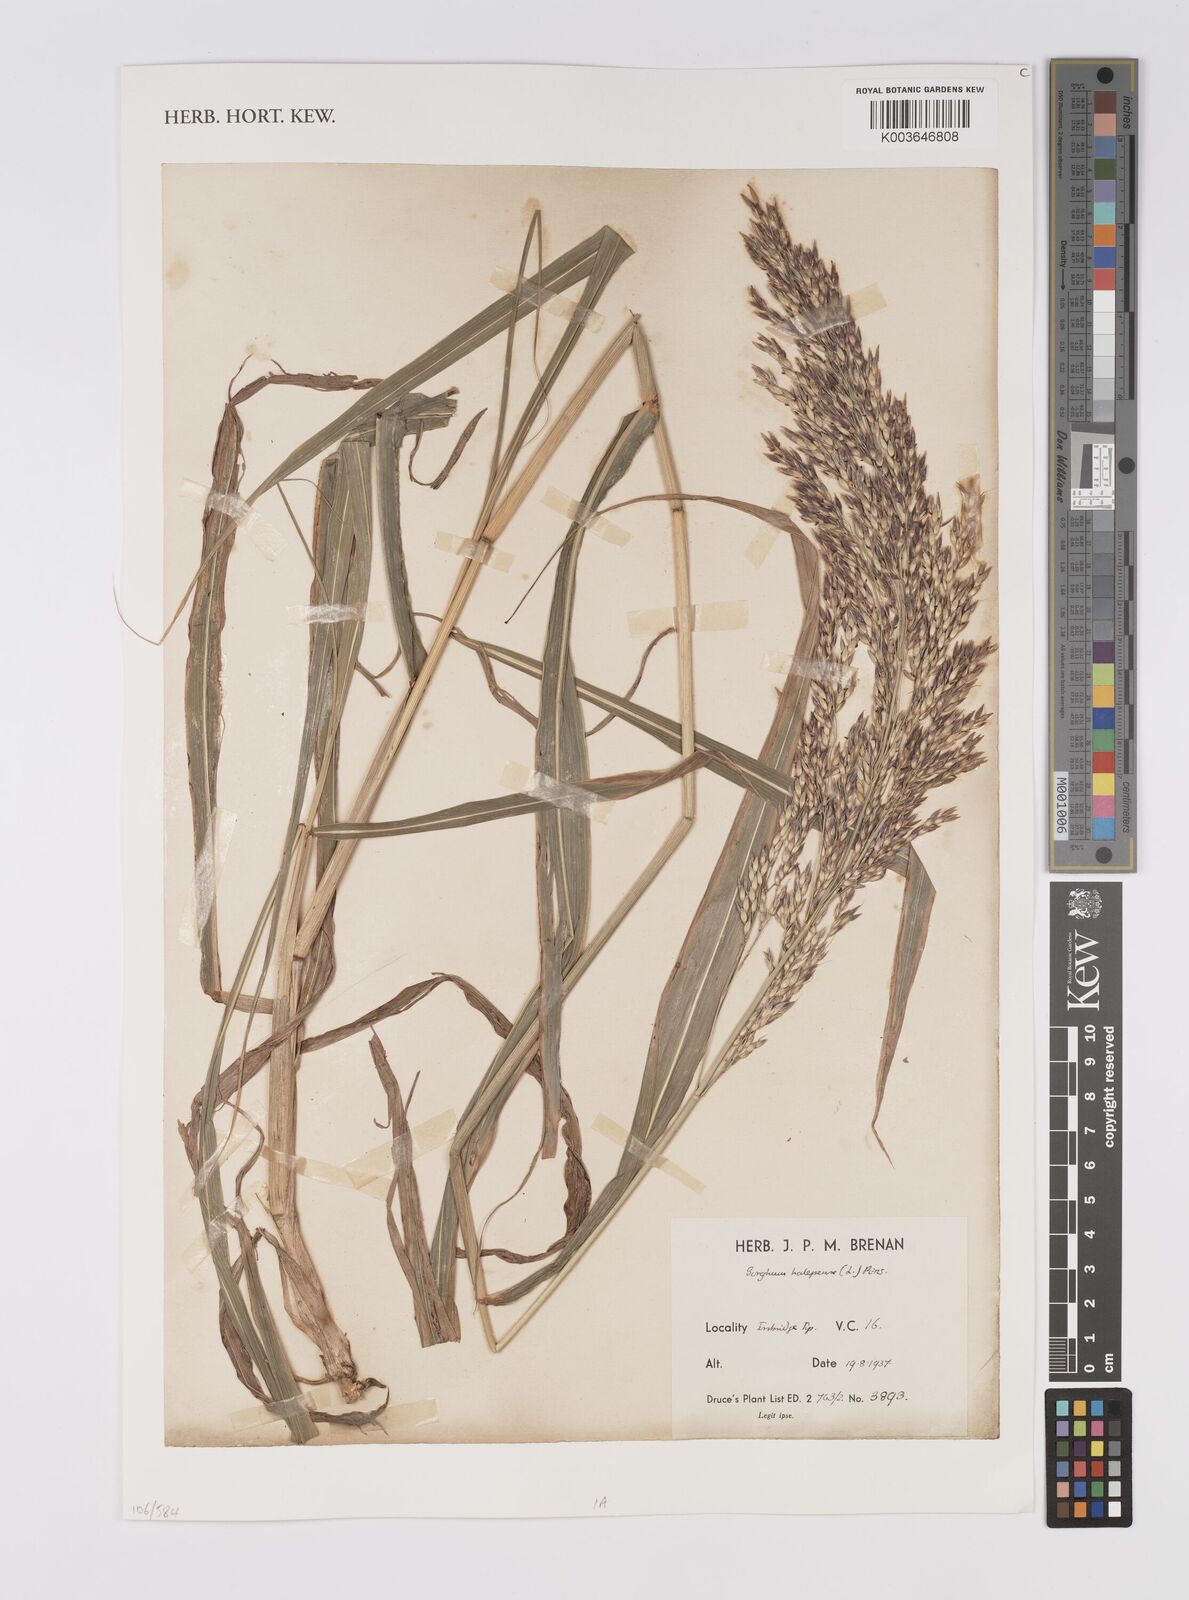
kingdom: Plantae
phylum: Tracheophyta
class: Liliopsida
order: Poales
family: Poaceae
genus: Sorghum
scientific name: Sorghum halepense
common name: Johnson-grass
